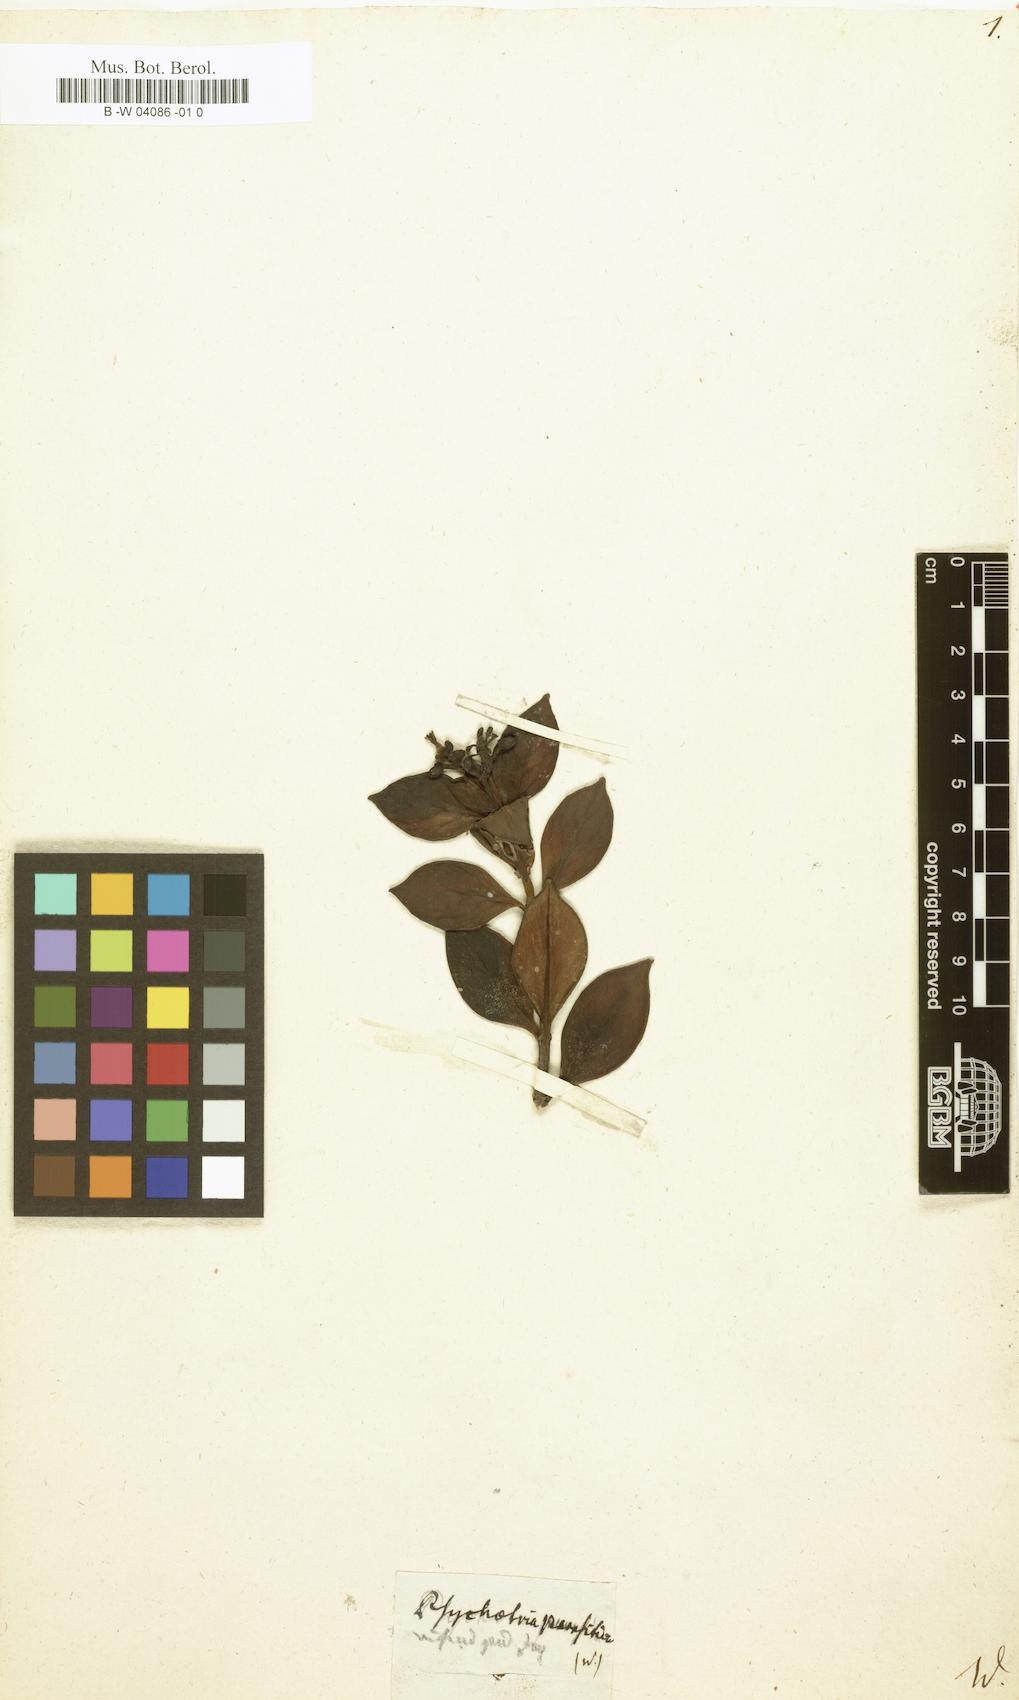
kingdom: Plantae
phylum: Tracheophyta
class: Magnoliopsida
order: Gentianales
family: Rubiaceae
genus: Notopleura
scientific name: Notopleura parasitica
